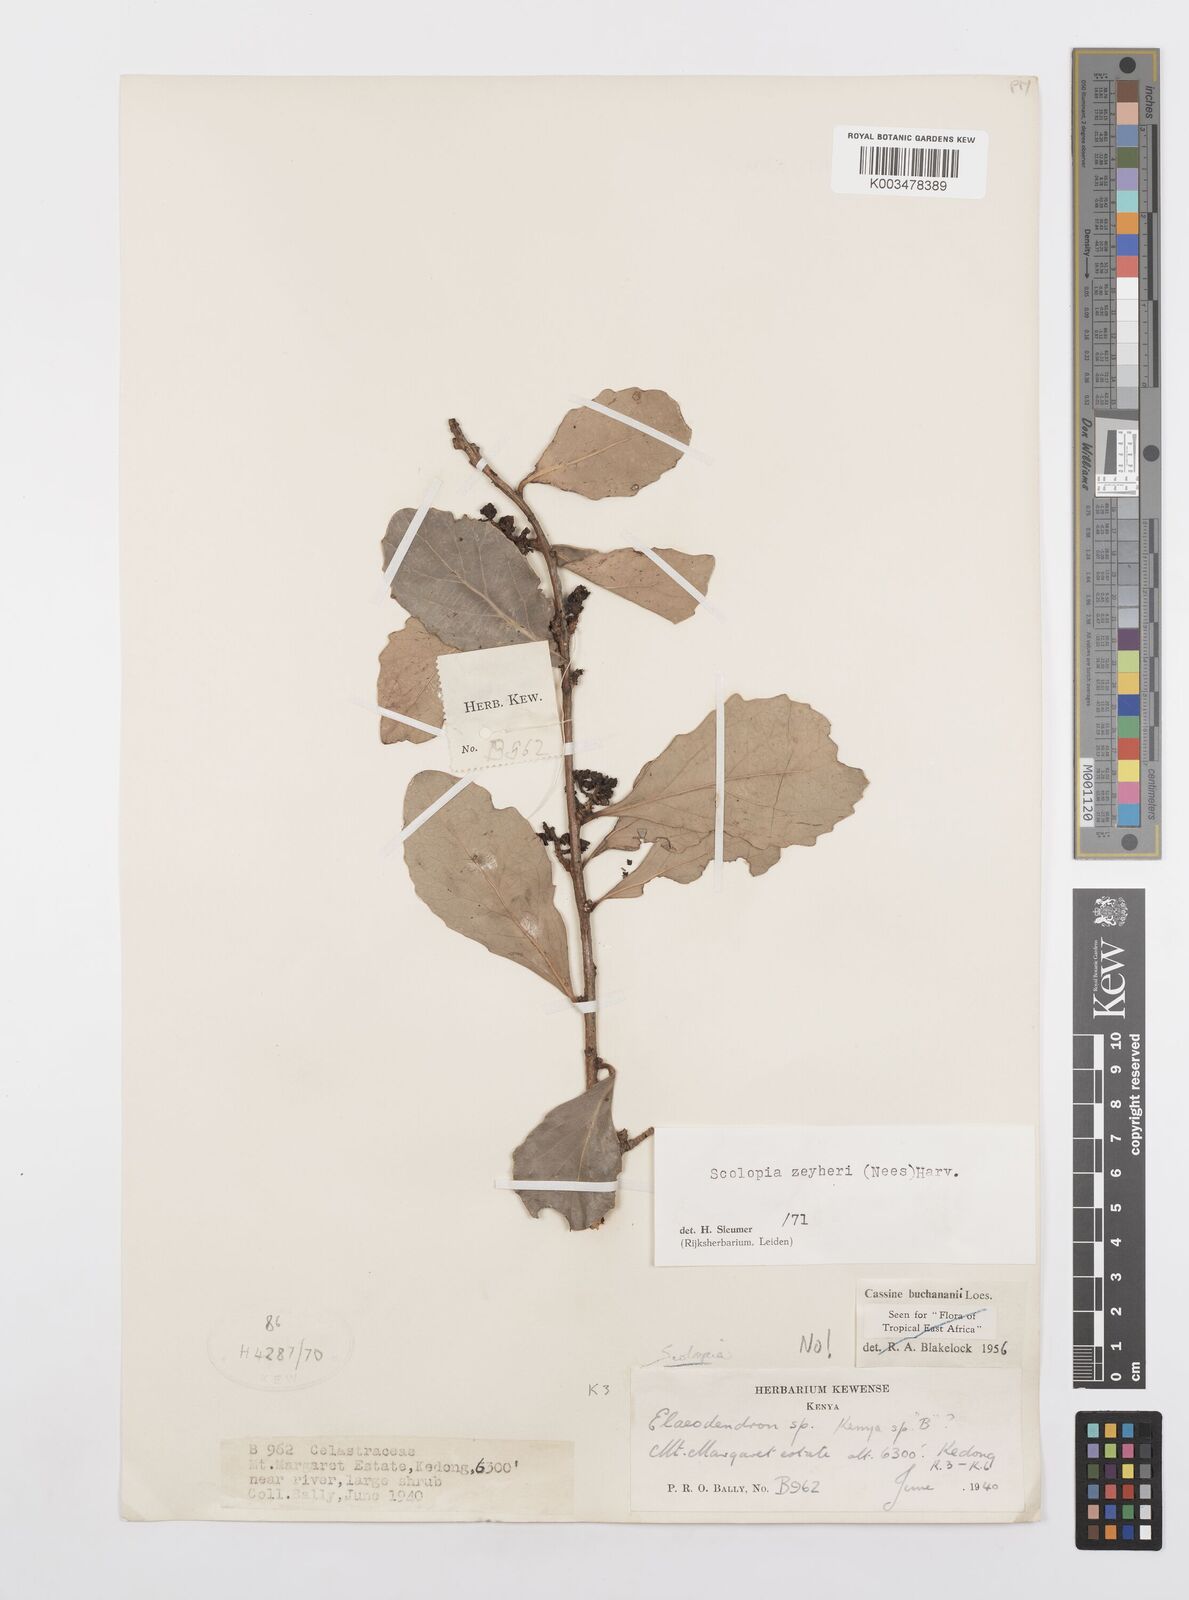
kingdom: Plantae
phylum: Tracheophyta
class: Magnoliopsida
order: Malpighiales
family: Salicaceae
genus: Scolopia
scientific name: Scolopia zeyheri
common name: Thorn pear
